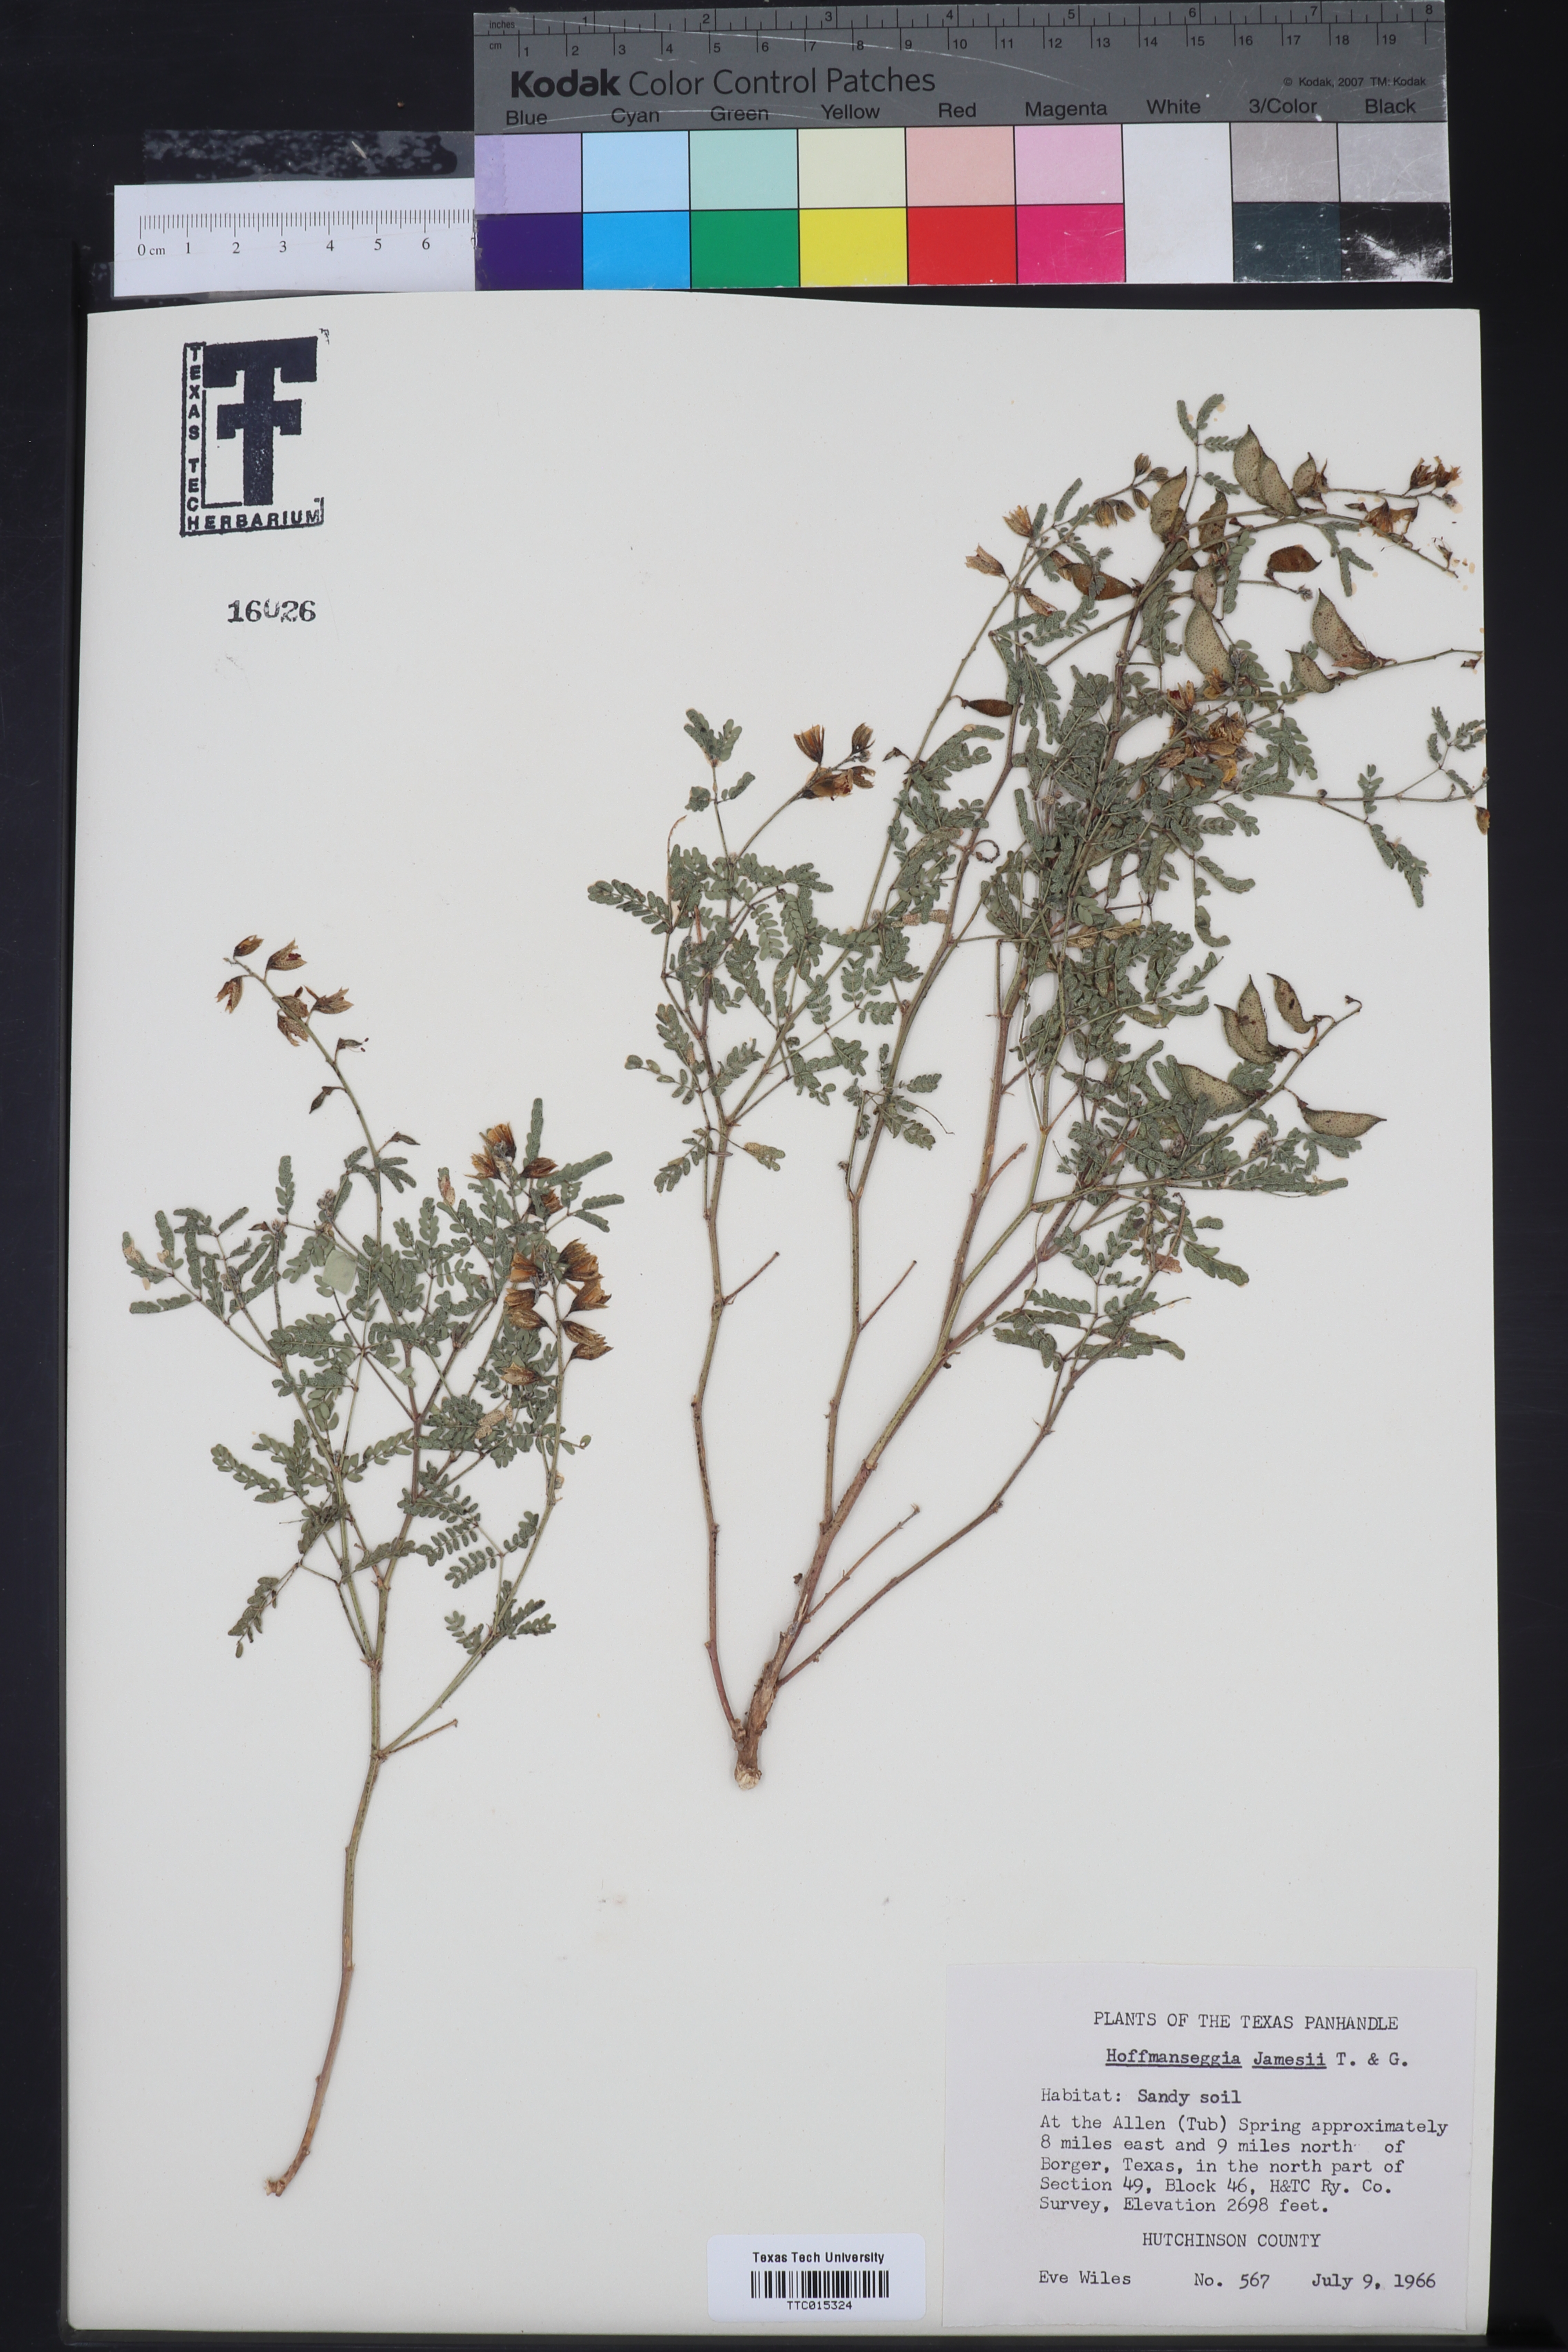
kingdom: Plantae
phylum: Tracheophyta
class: Magnoliopsida
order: Fabales
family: Fabaceae
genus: Pomaria
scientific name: Pomaria jamesii
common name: James' caesalpinia
